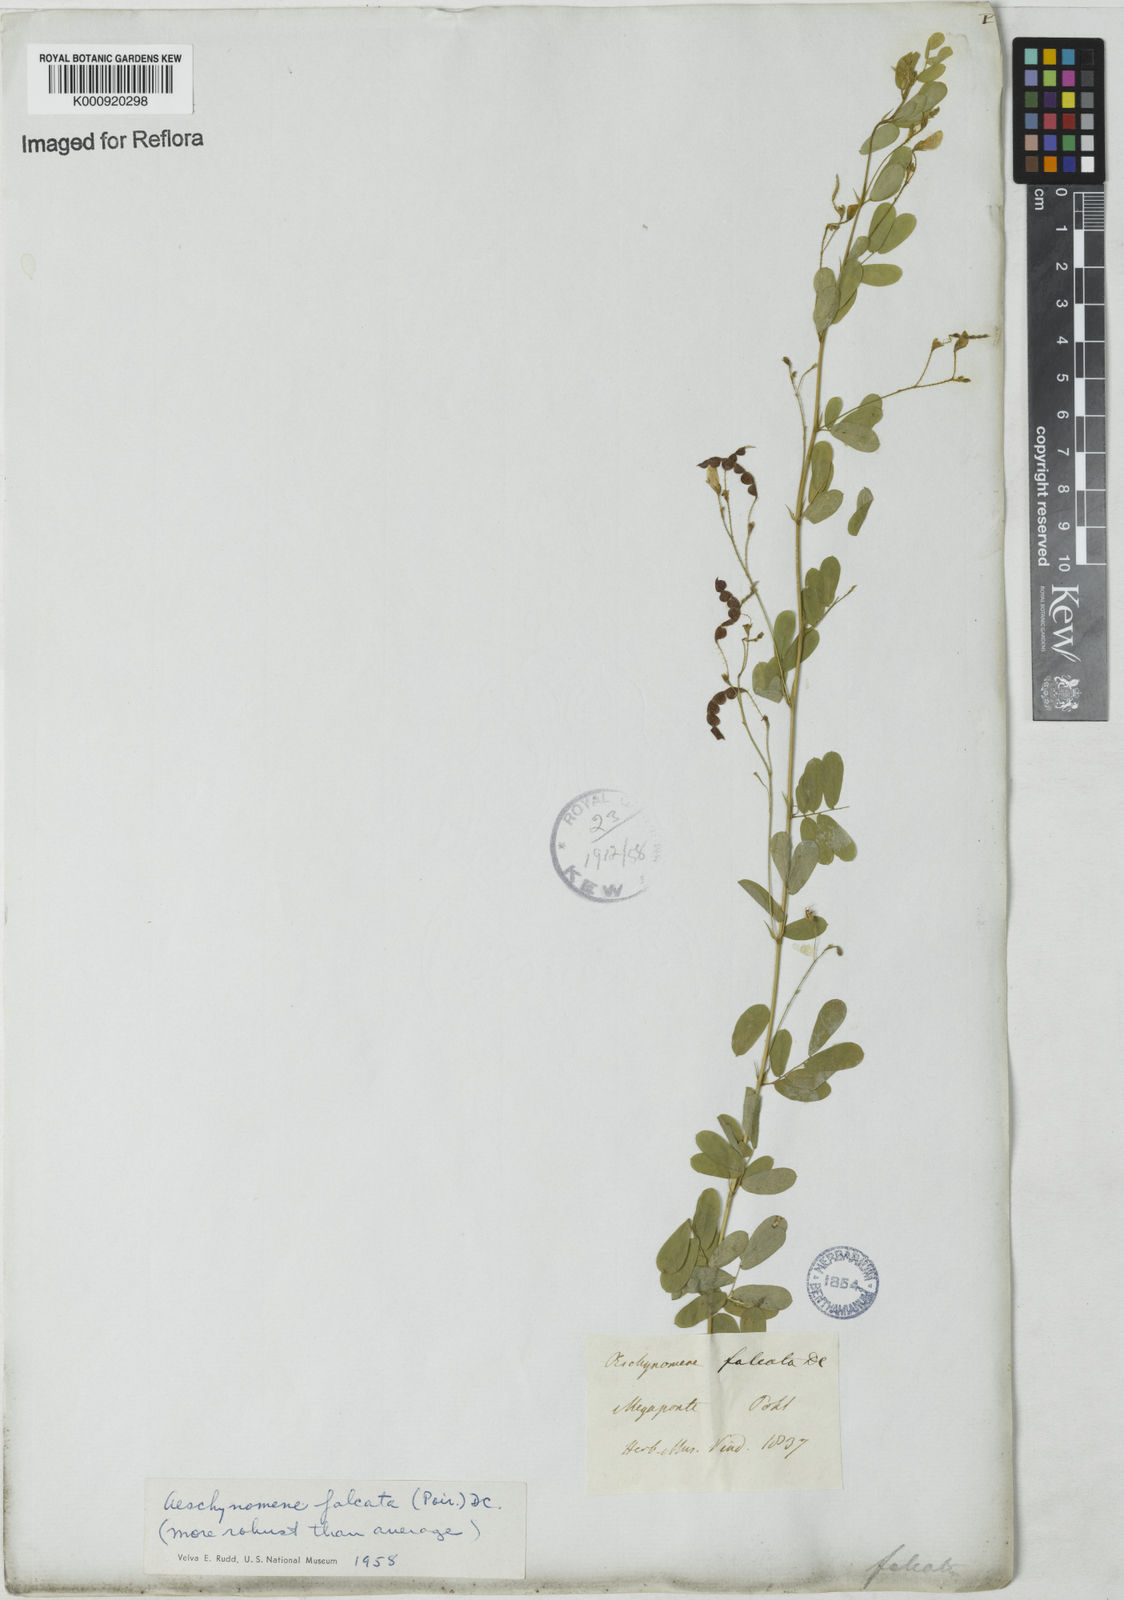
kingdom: Plantae
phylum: Tracheophyta
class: Magnoliopsida
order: Fabales
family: Fabaceae
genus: Aeschynomene
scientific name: Aeschynomene
